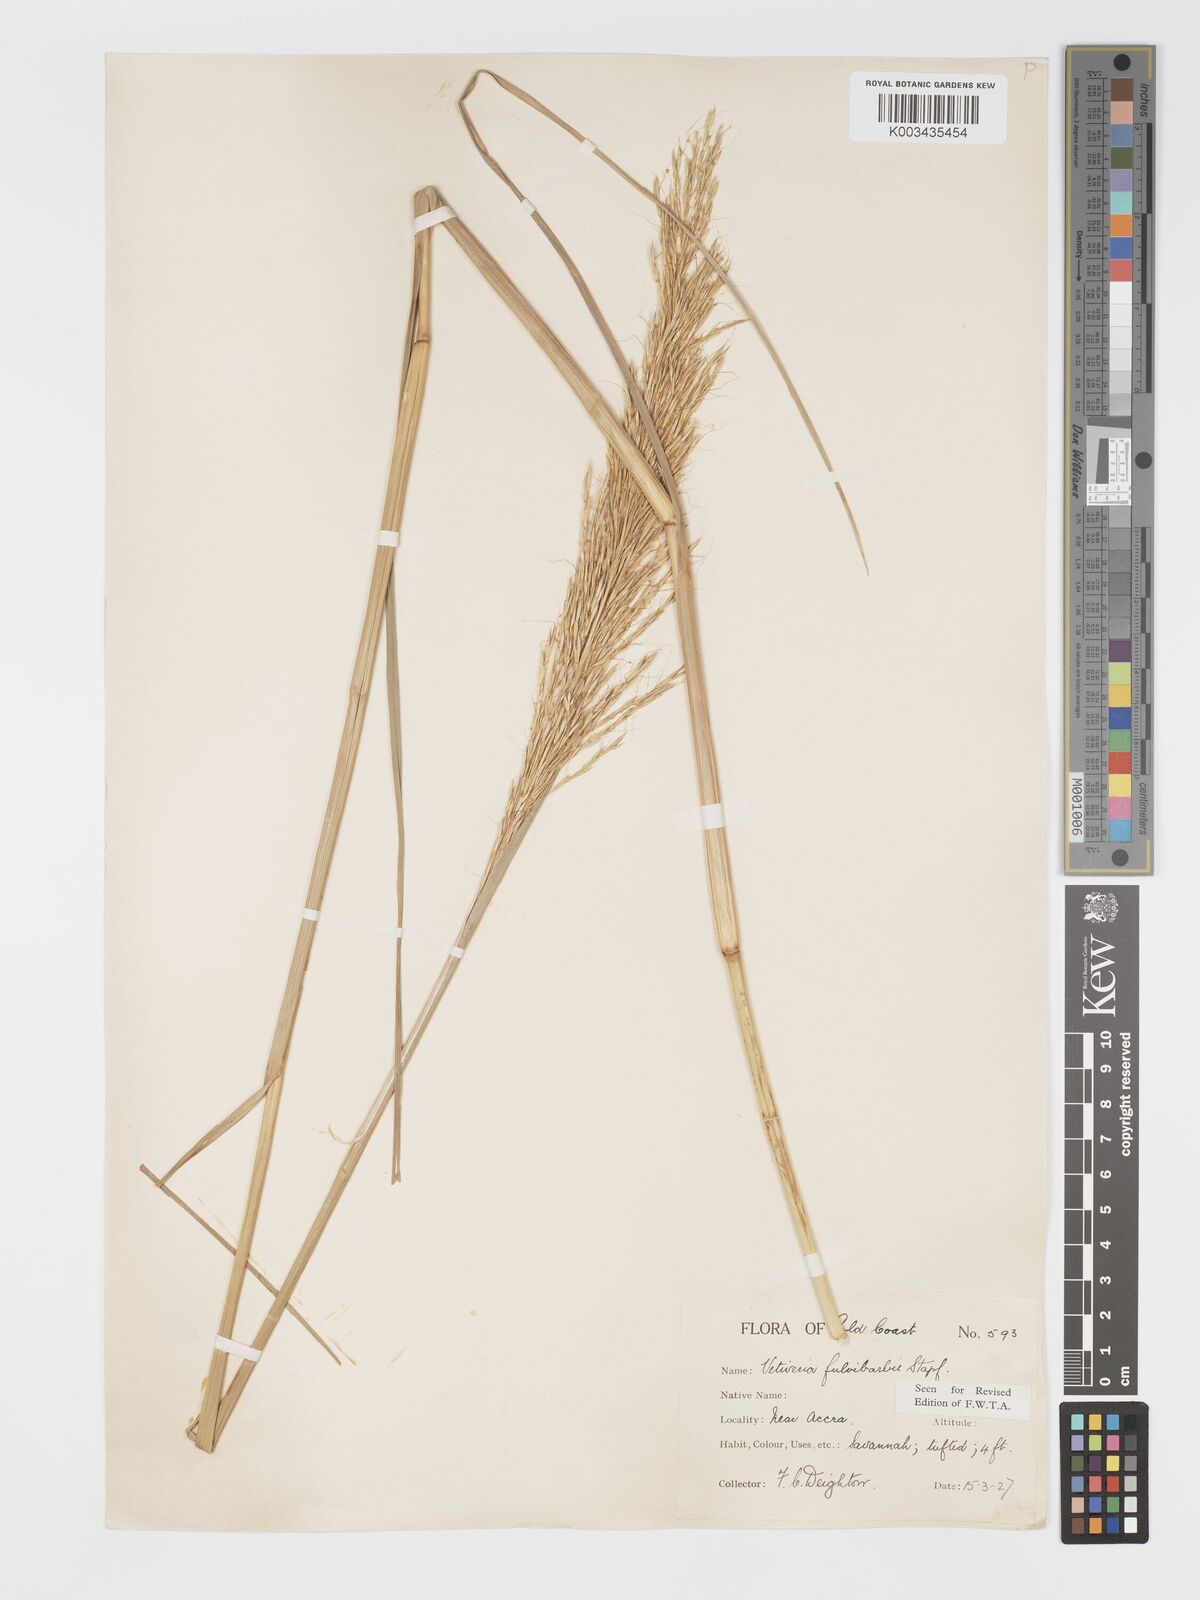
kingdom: Plantae
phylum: Tracheophyta
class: Liliopsida
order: Poales
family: Poaceae
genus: Chrysopogon
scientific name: Chrysopogon fulvibarbis
